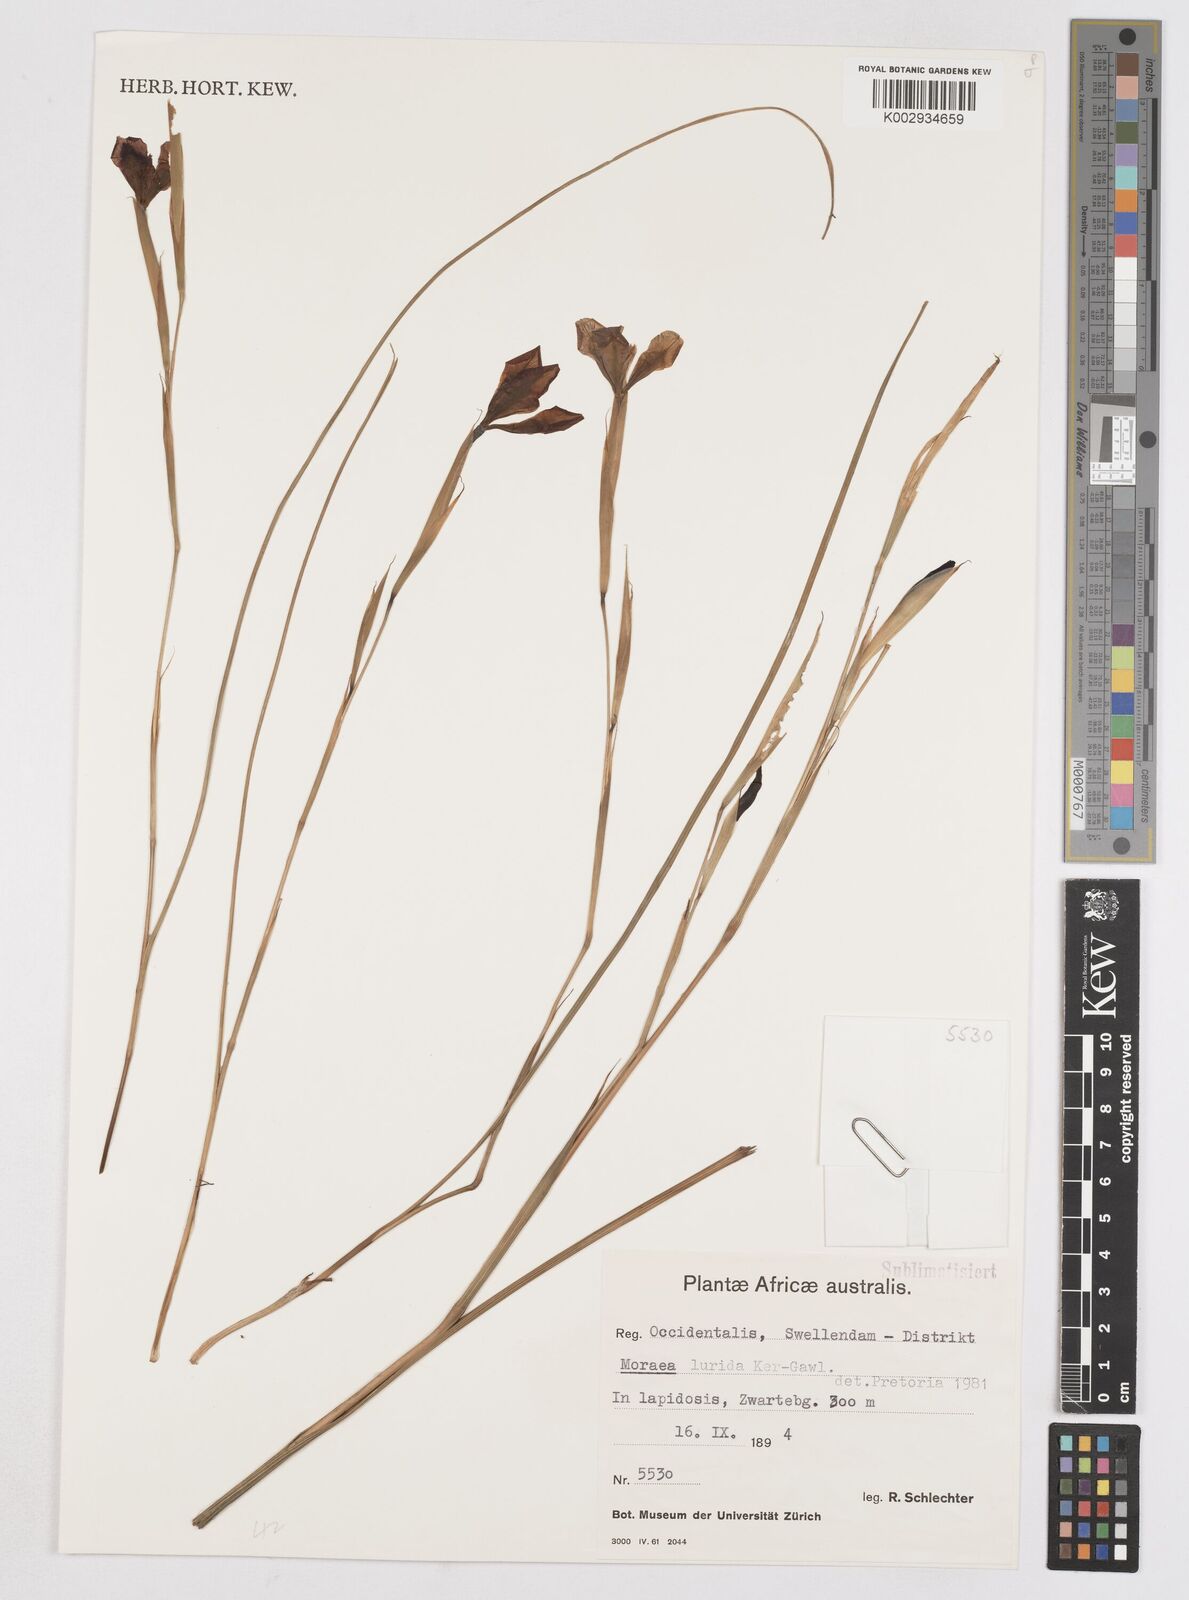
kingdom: Plantae
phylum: Tracheophyta
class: Liliopsida
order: Asparagales
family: Iridaceae
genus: Moraea
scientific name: Moraea lurida
